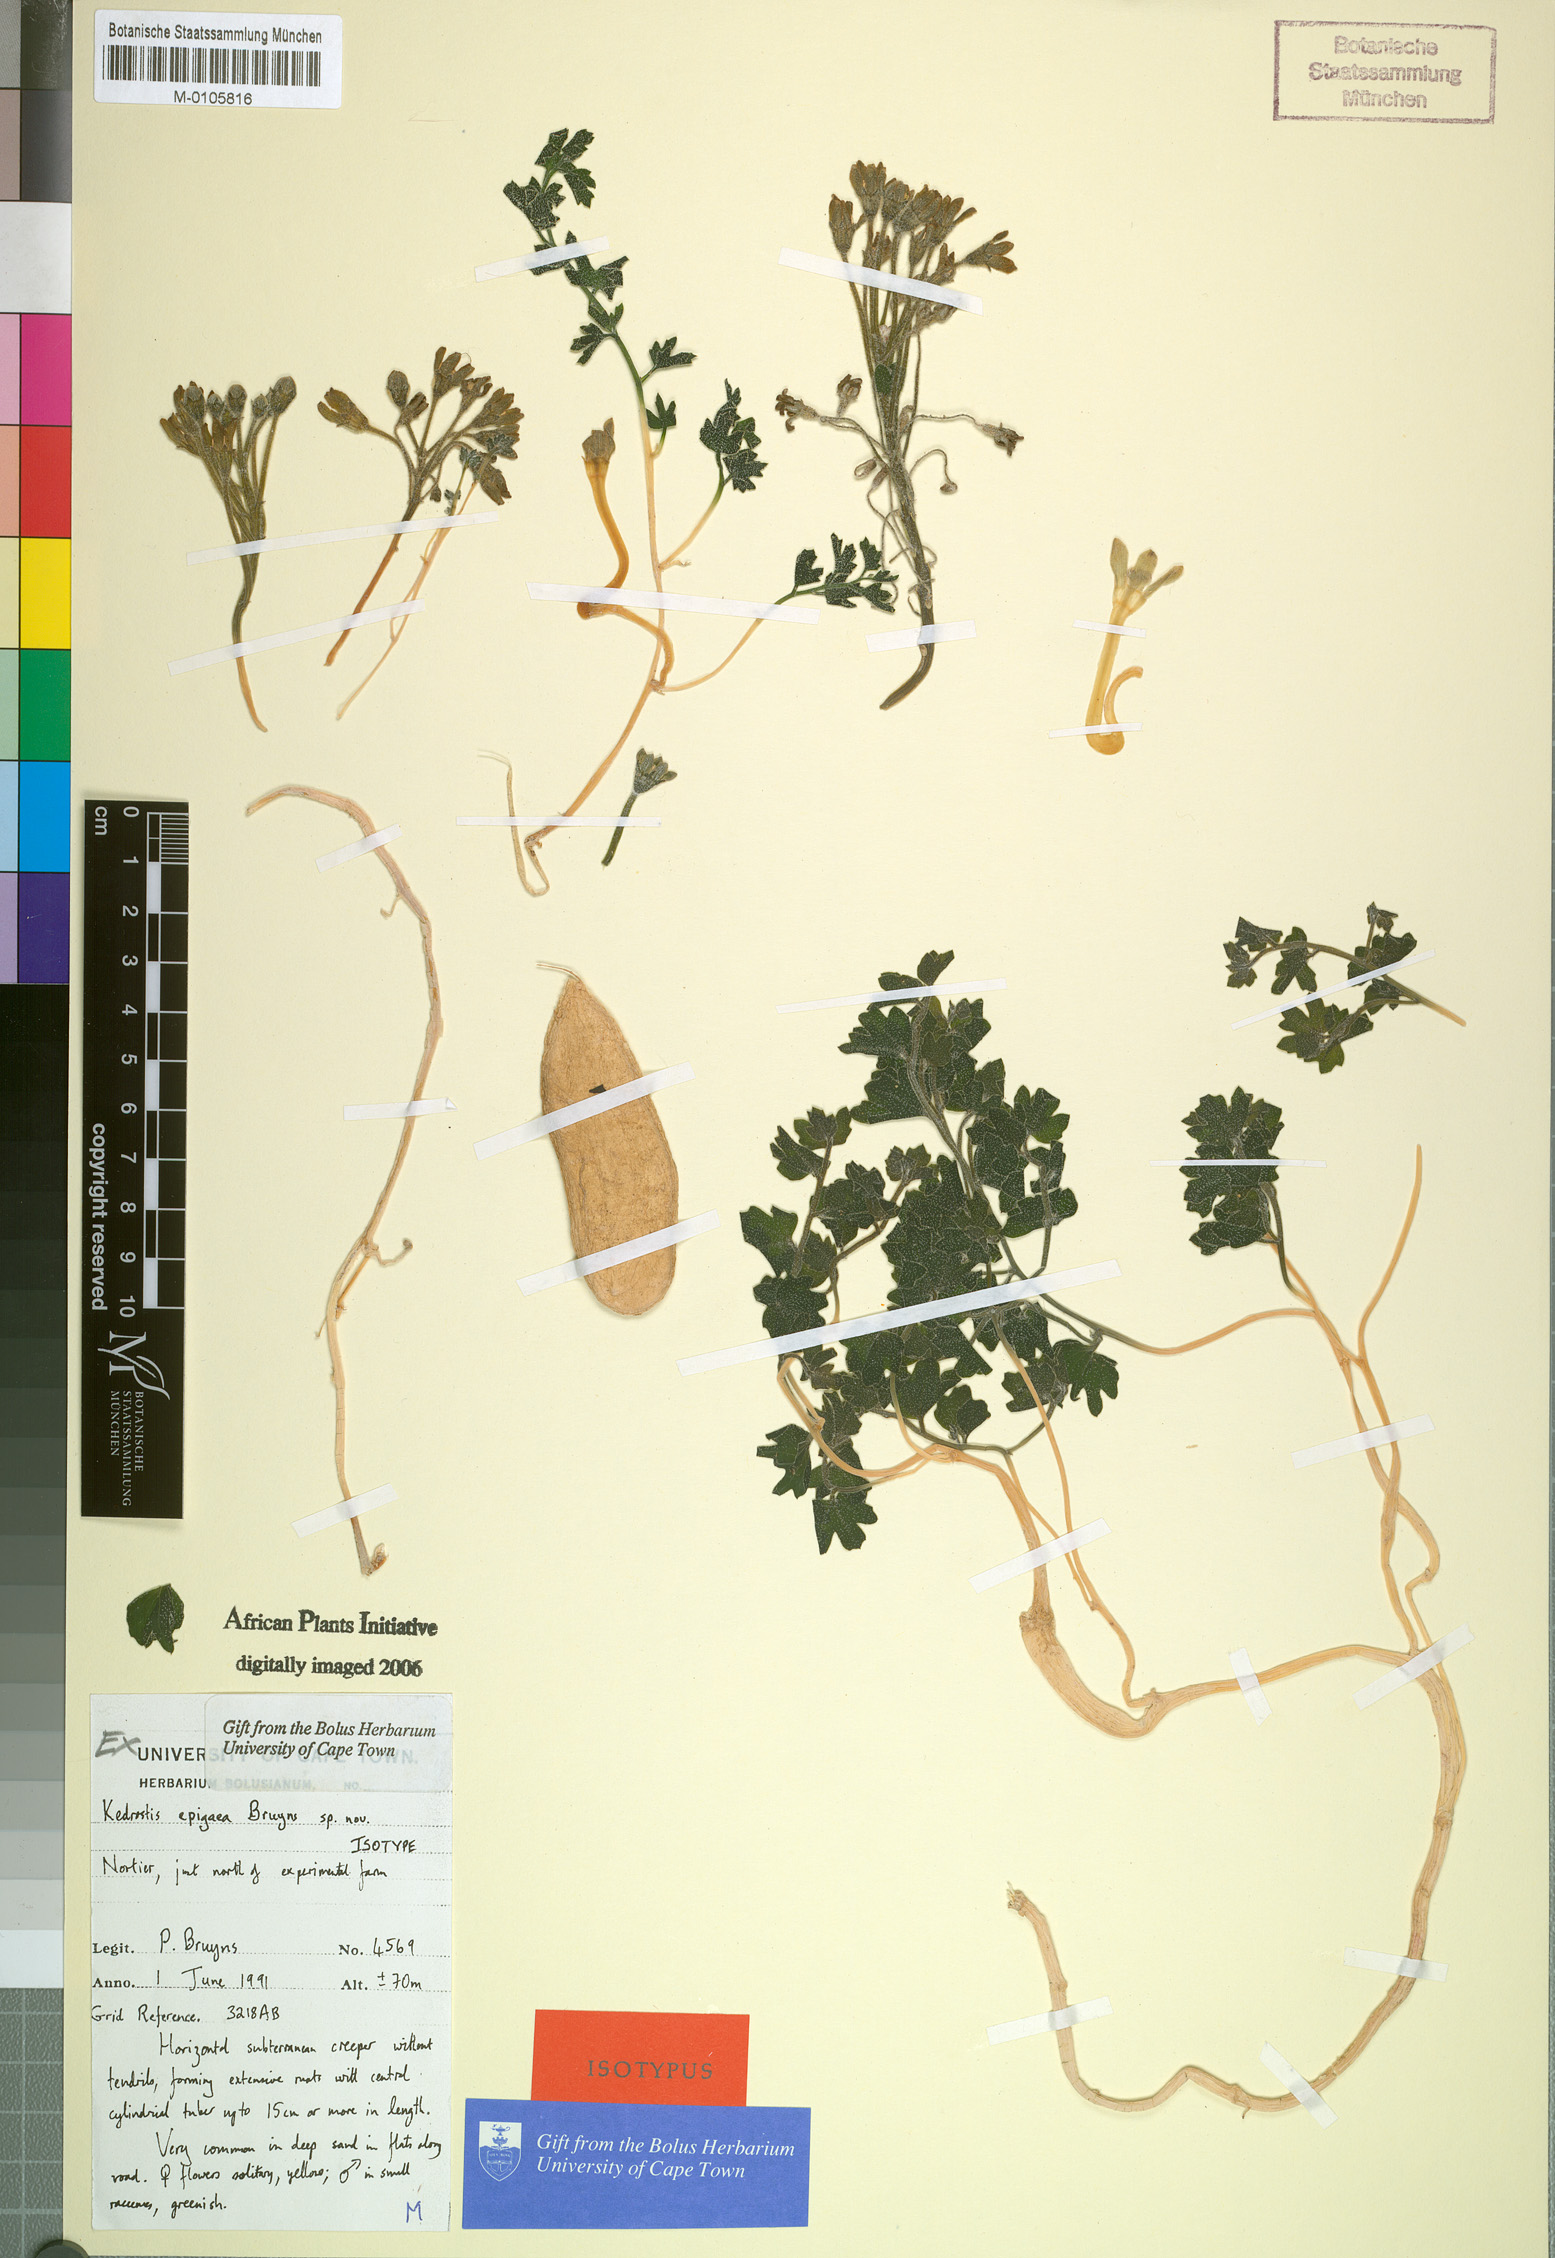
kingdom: Plantae
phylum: Tracheophyta
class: Magnoliopsida
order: Cucurbitales
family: Cucurbitaceae
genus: Kedrostis
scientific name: Kedrostis
